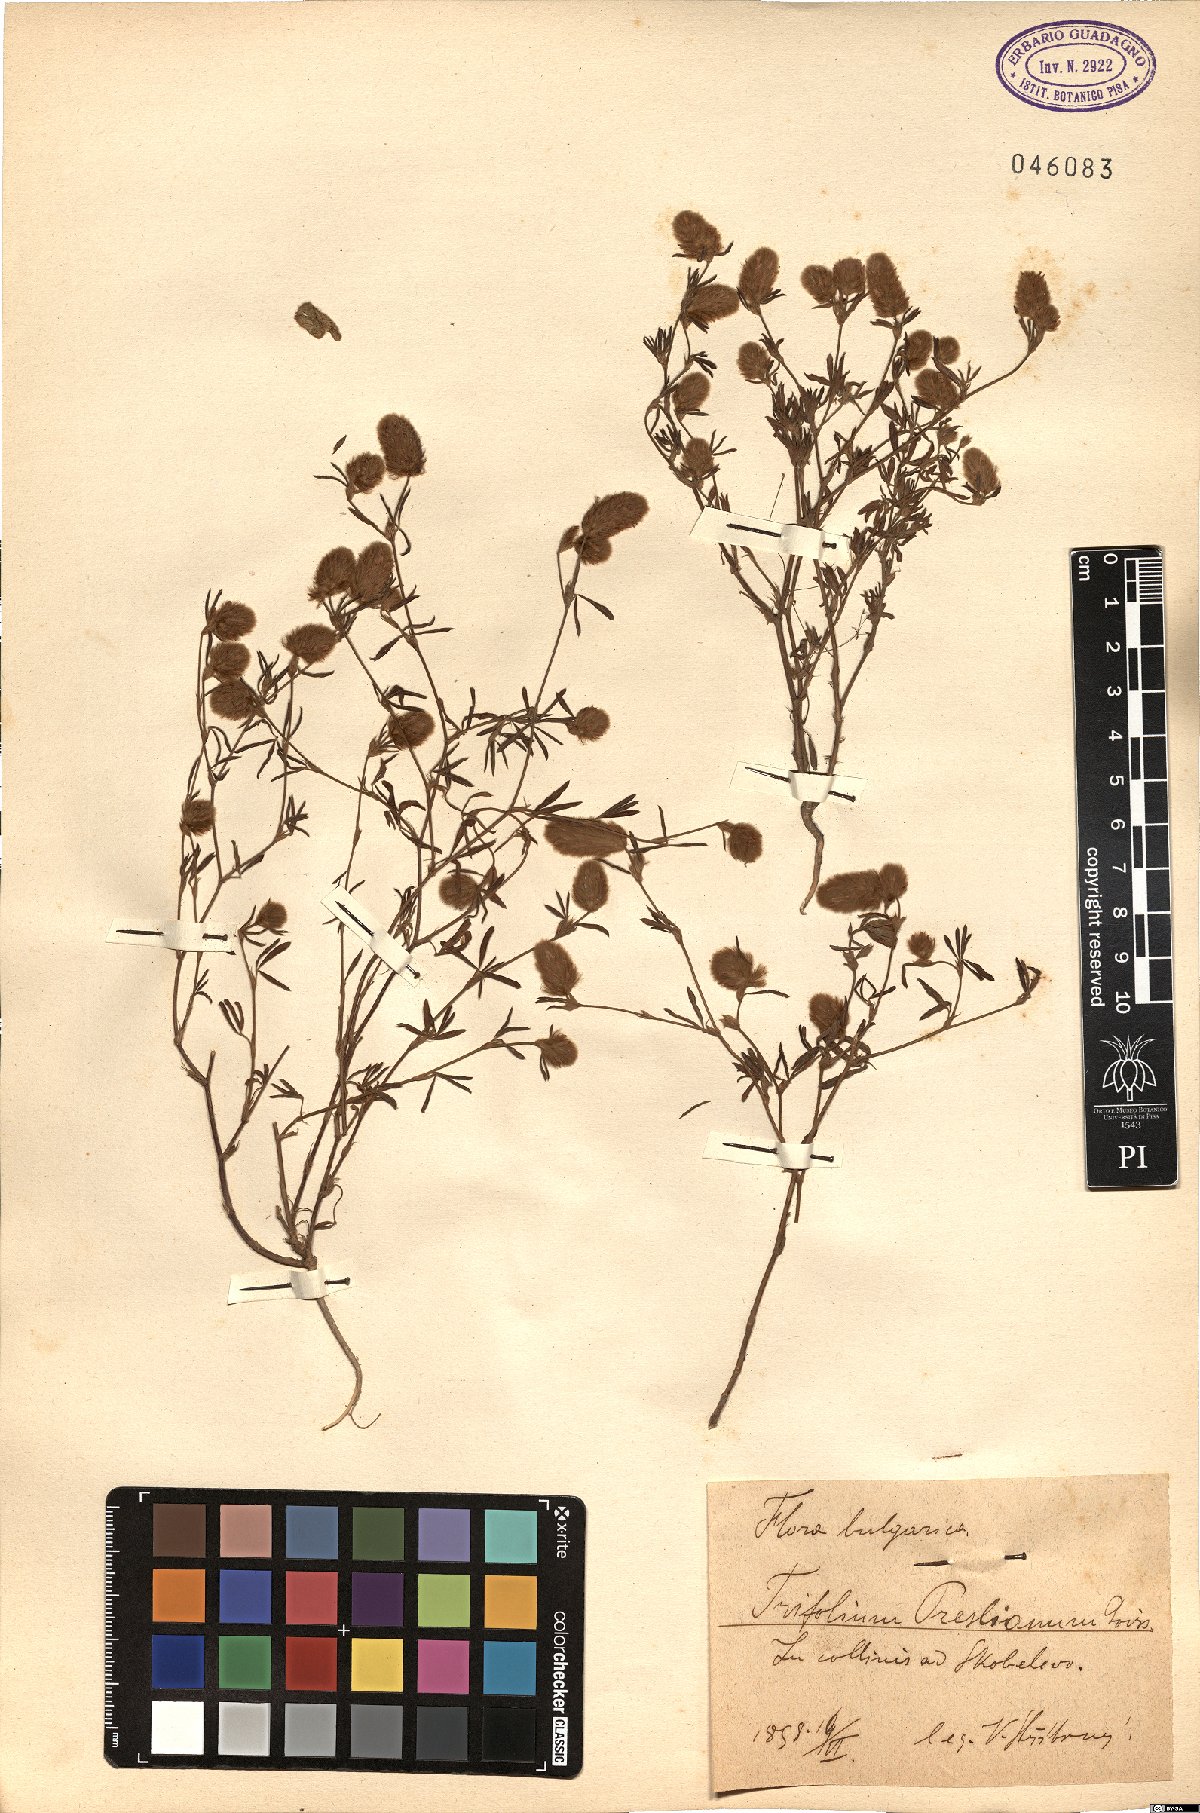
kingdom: Plantae
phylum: Tracheophyta
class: Magnoliopsida
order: Fabales
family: Fabaceae
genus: Trifolium
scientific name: Trifolium arvense
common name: Hare's-foot clover
